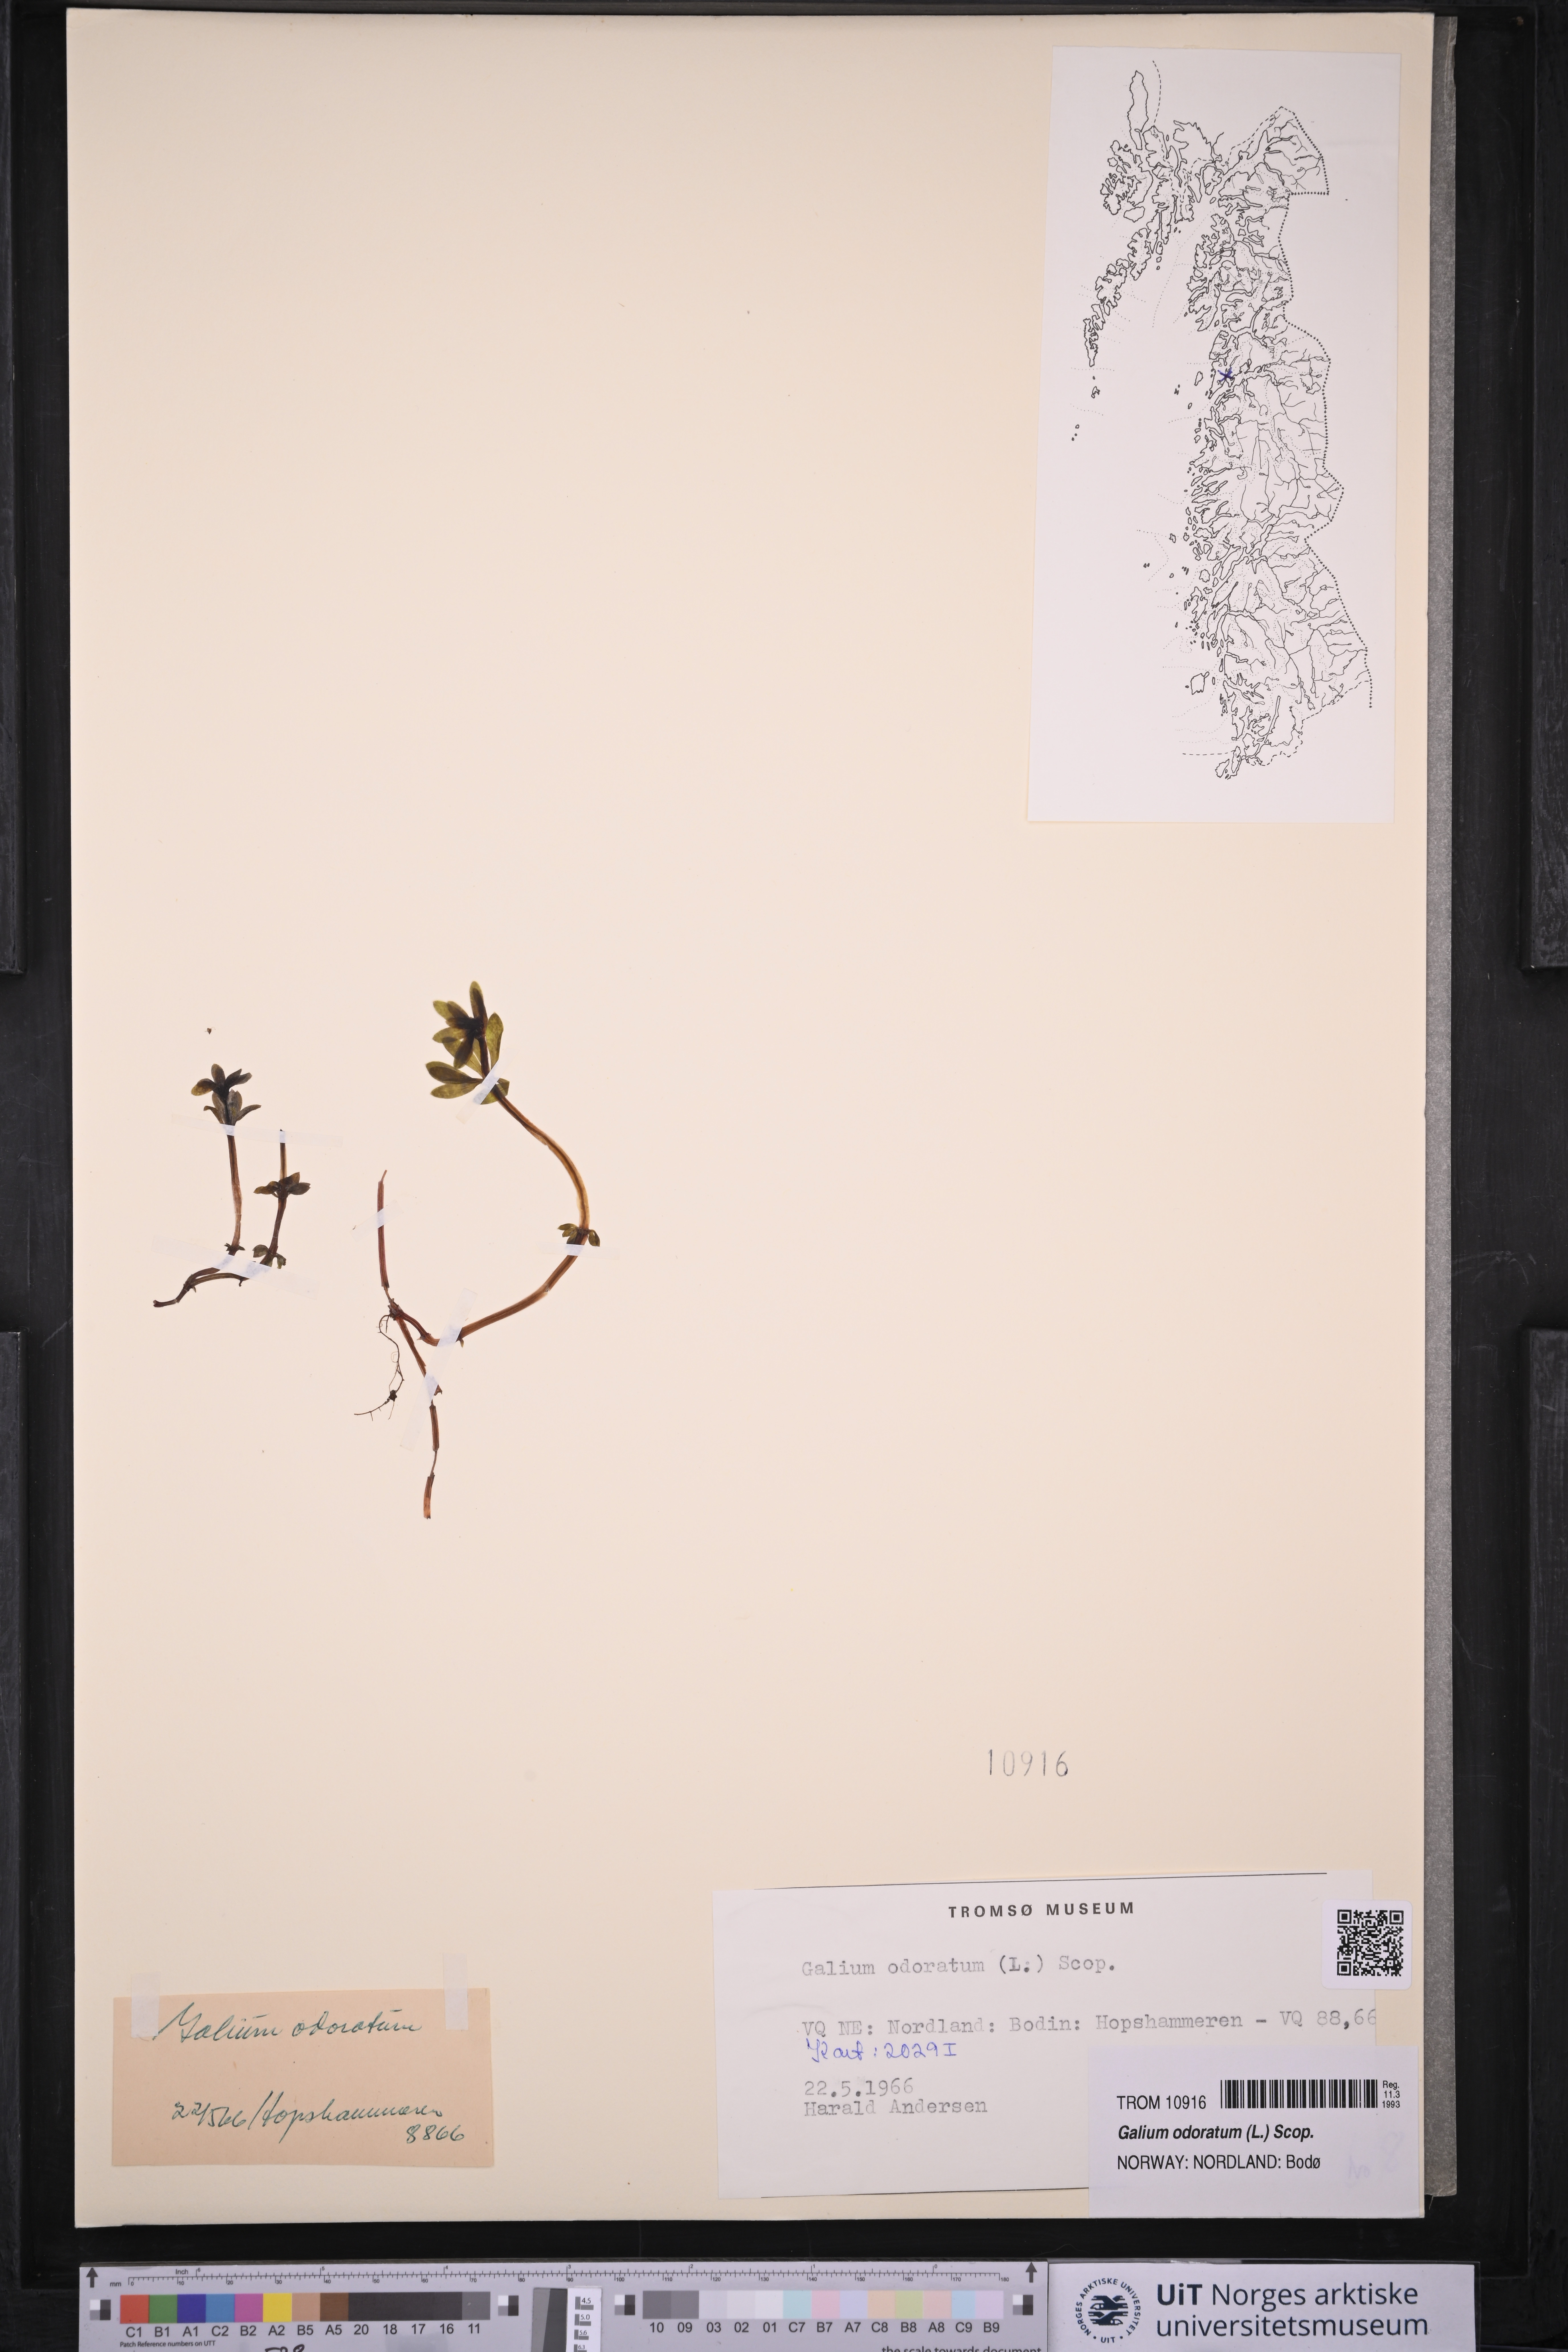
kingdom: Plantae
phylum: Tracheophyta
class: Magnoliopsida
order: Gentianales
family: Rubiaceae
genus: Galium
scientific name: Galium odoratum
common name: Sweet woodruff
